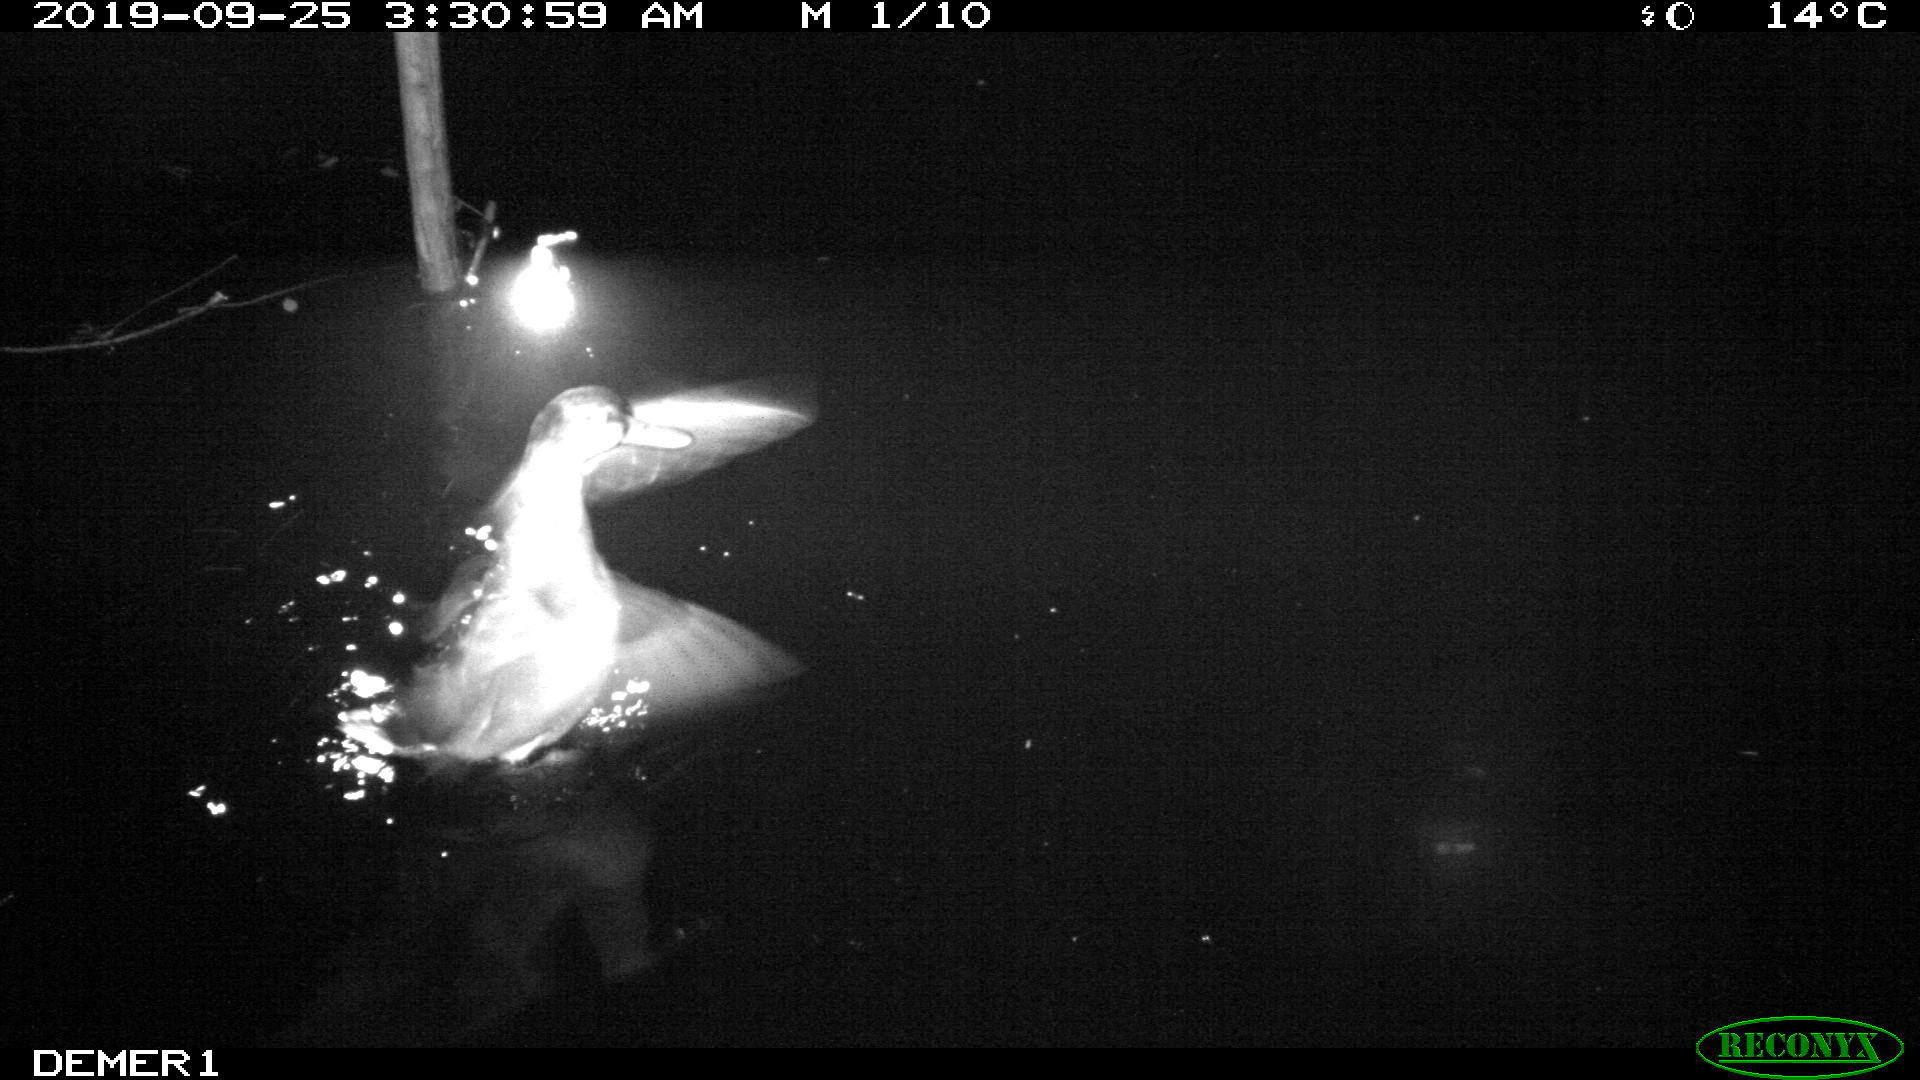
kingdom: Animalia
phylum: Chordata
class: Aves
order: Anseriformes
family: Anatidae
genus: Anas
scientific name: Anas platyrhynchos
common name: Mallard
